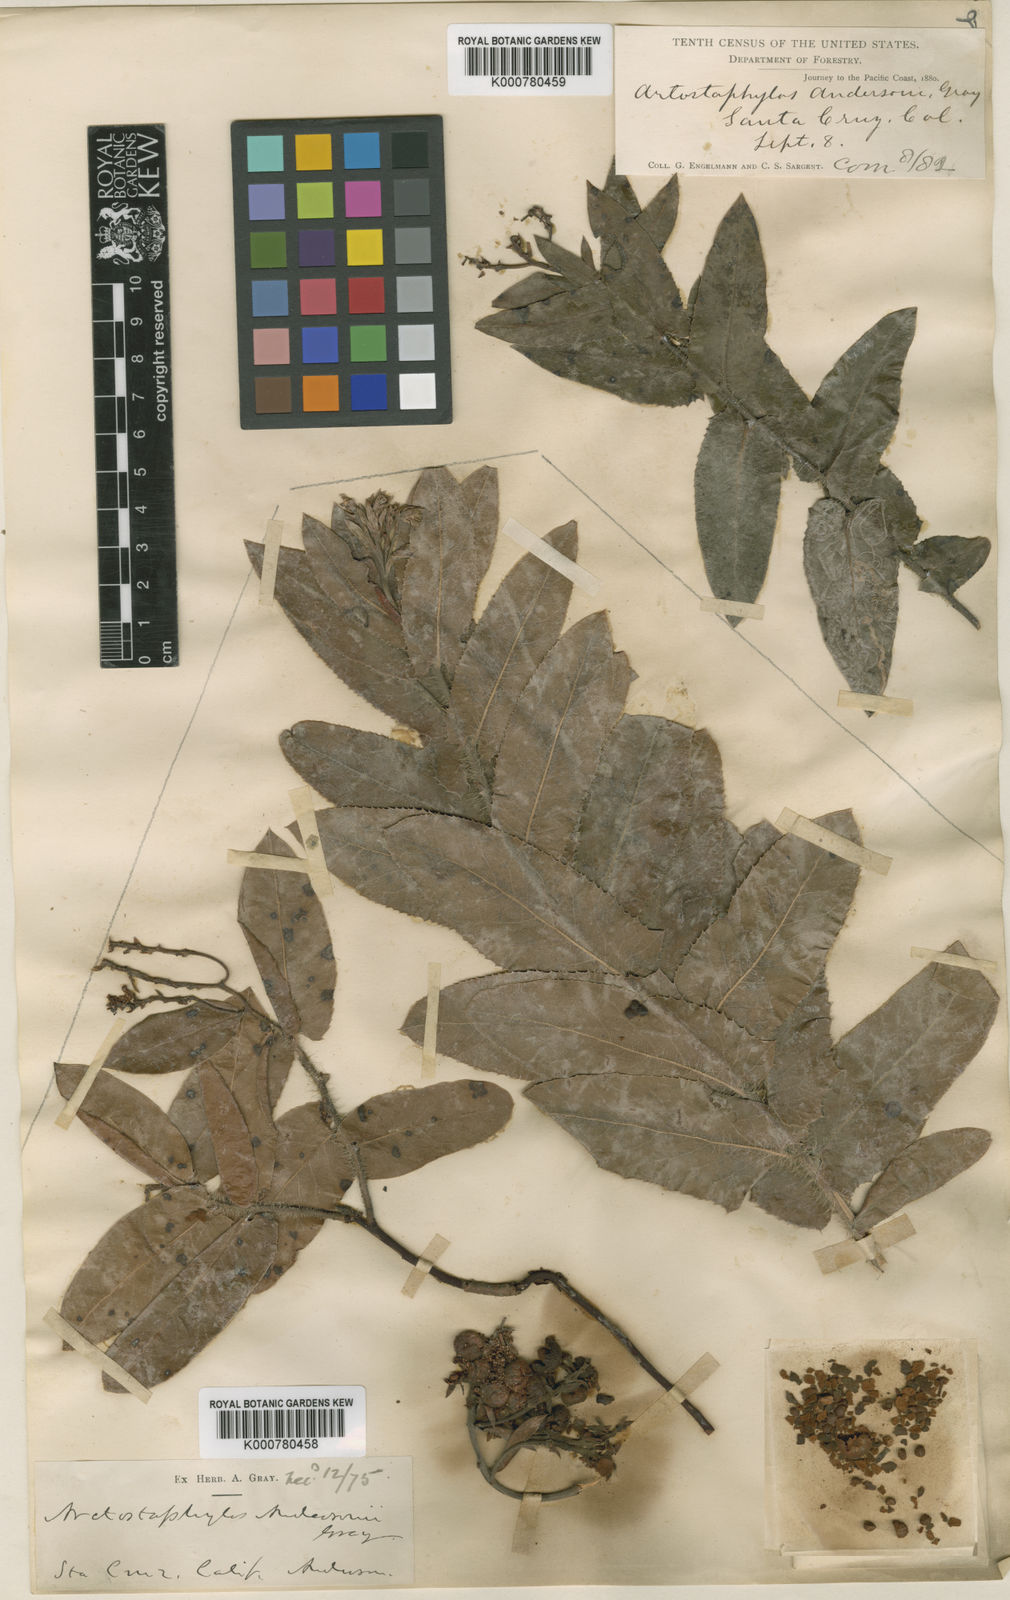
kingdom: Plantae
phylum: Tracheophyta
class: Magnoliopsida
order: Ericales
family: Ericaceae
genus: Arctostaphylos
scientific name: Arctostaphylos andersonii
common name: Santa cruz manzanita
